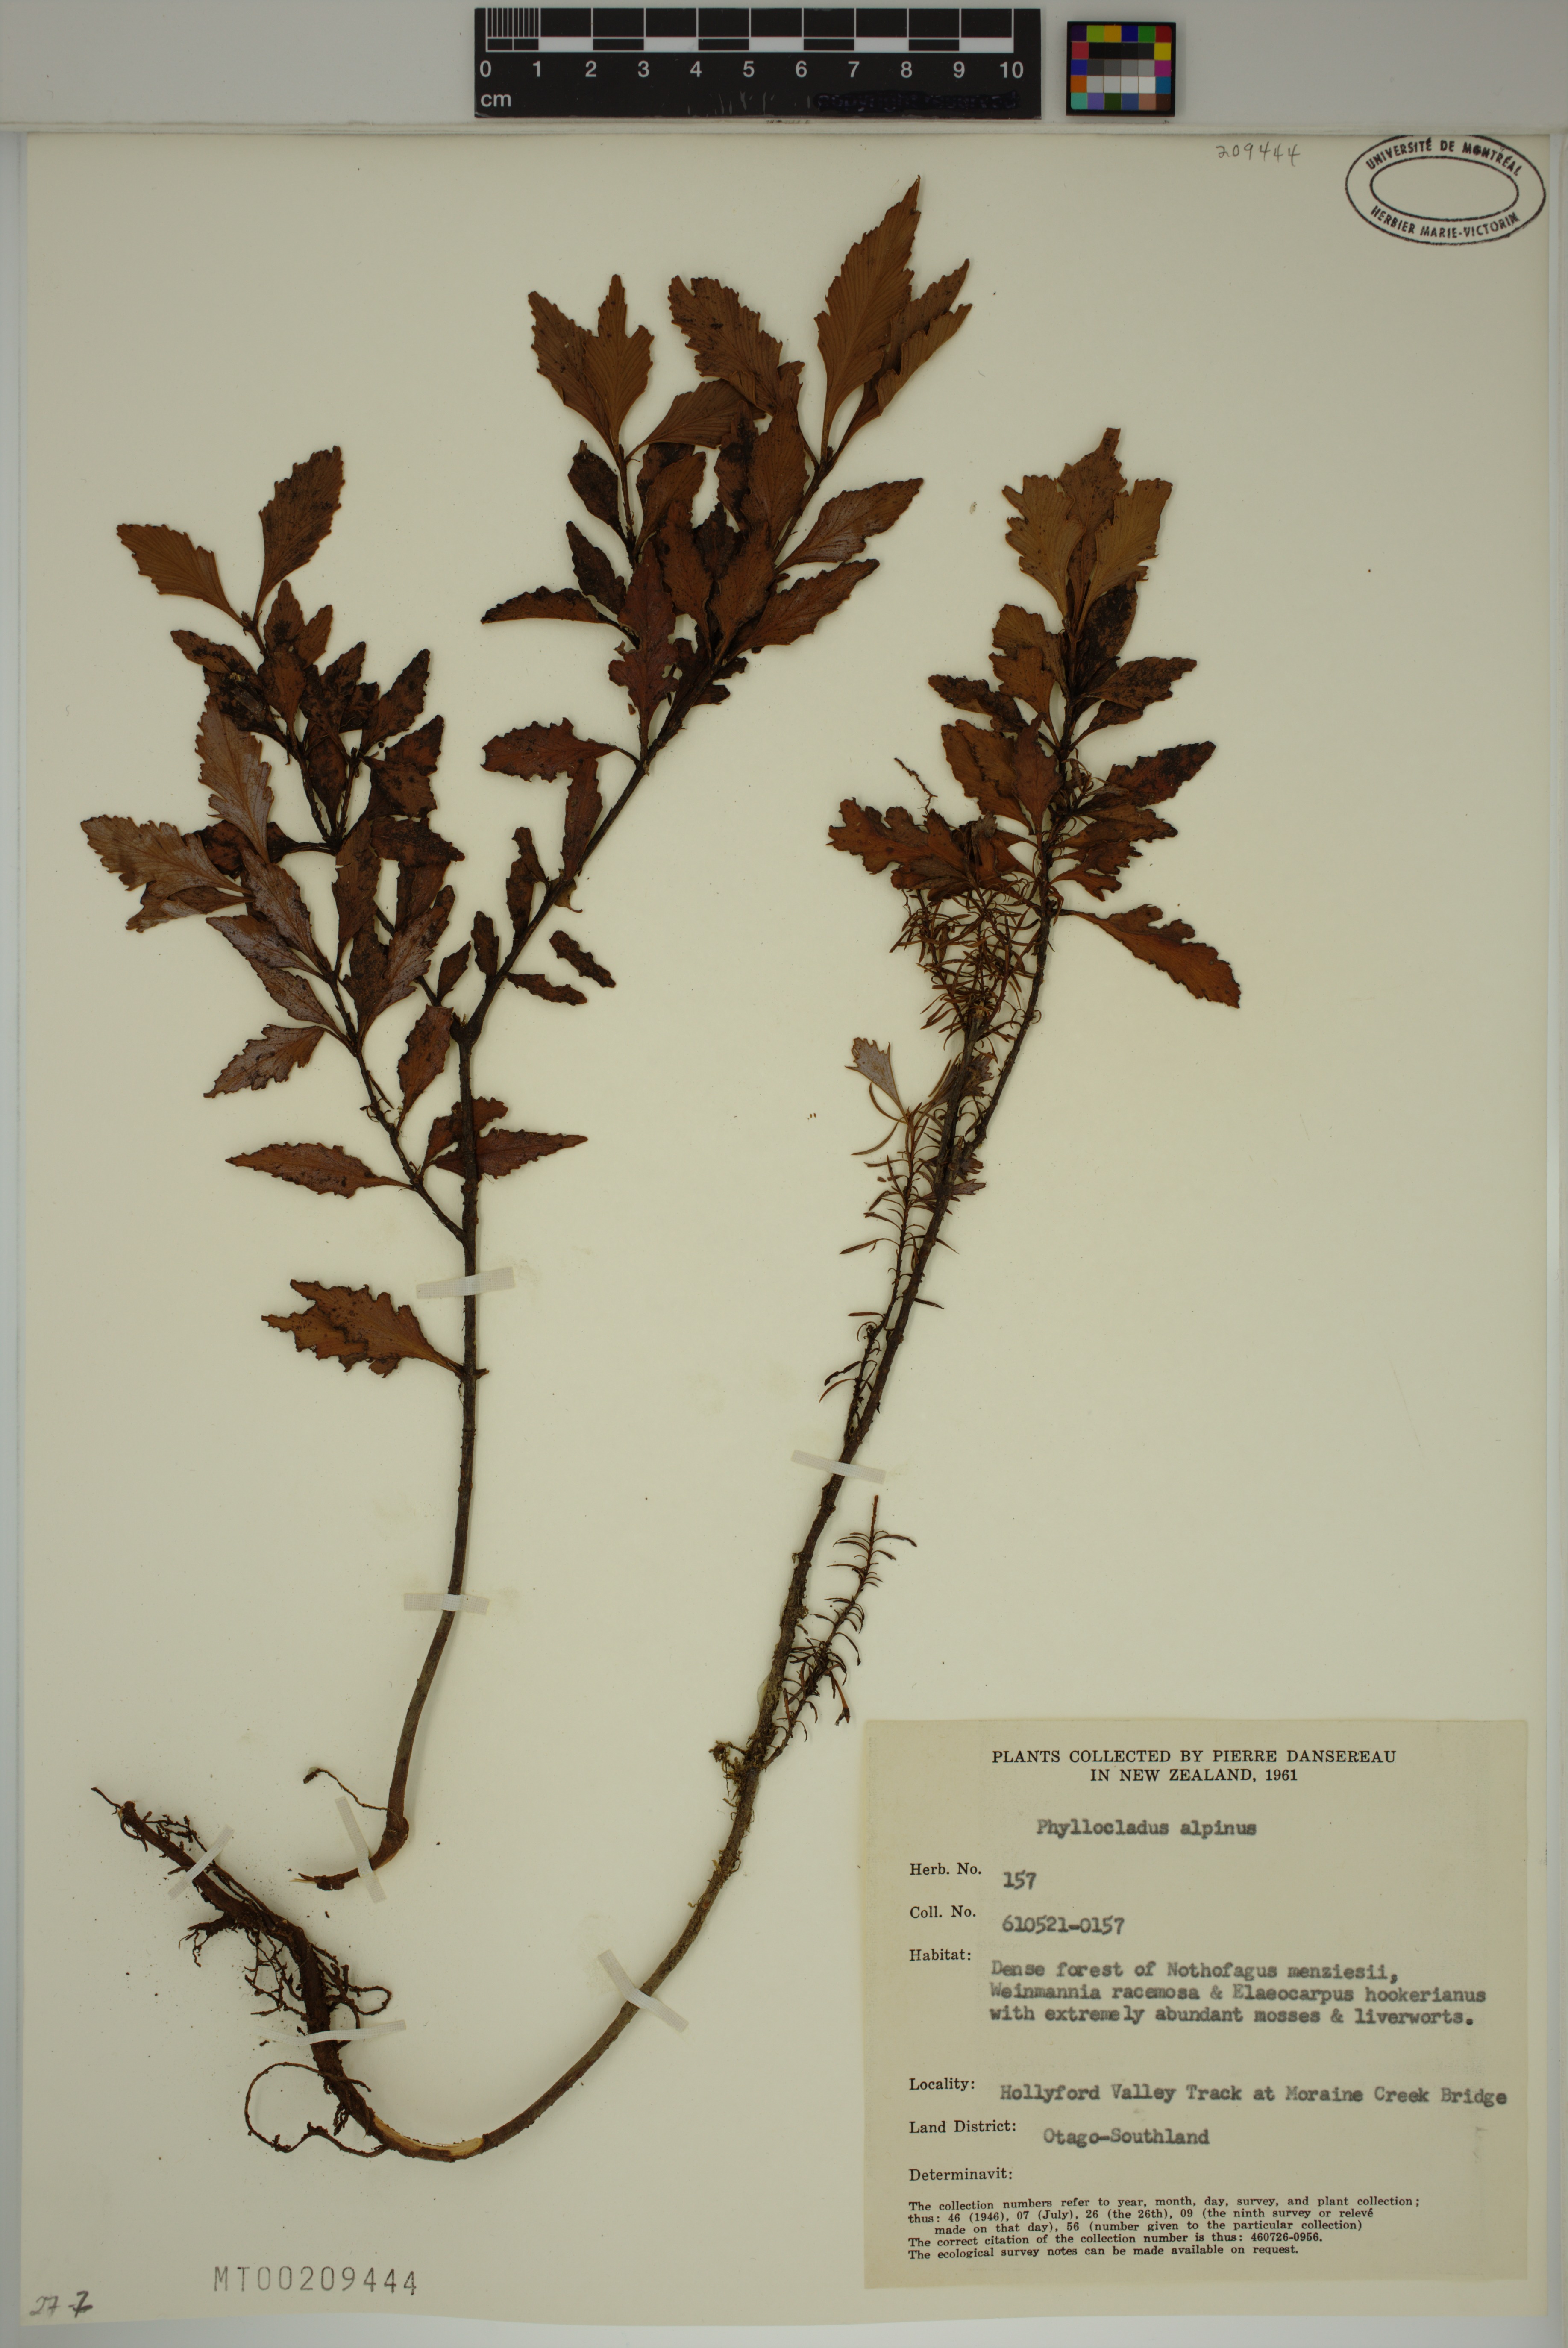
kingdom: Plantae
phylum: Tracheophyta
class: Pinopsida
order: Pinales
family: Phyllocladaceae
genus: Phyllocladus
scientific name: Phyllocladus trichomanoides
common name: Celery pine
